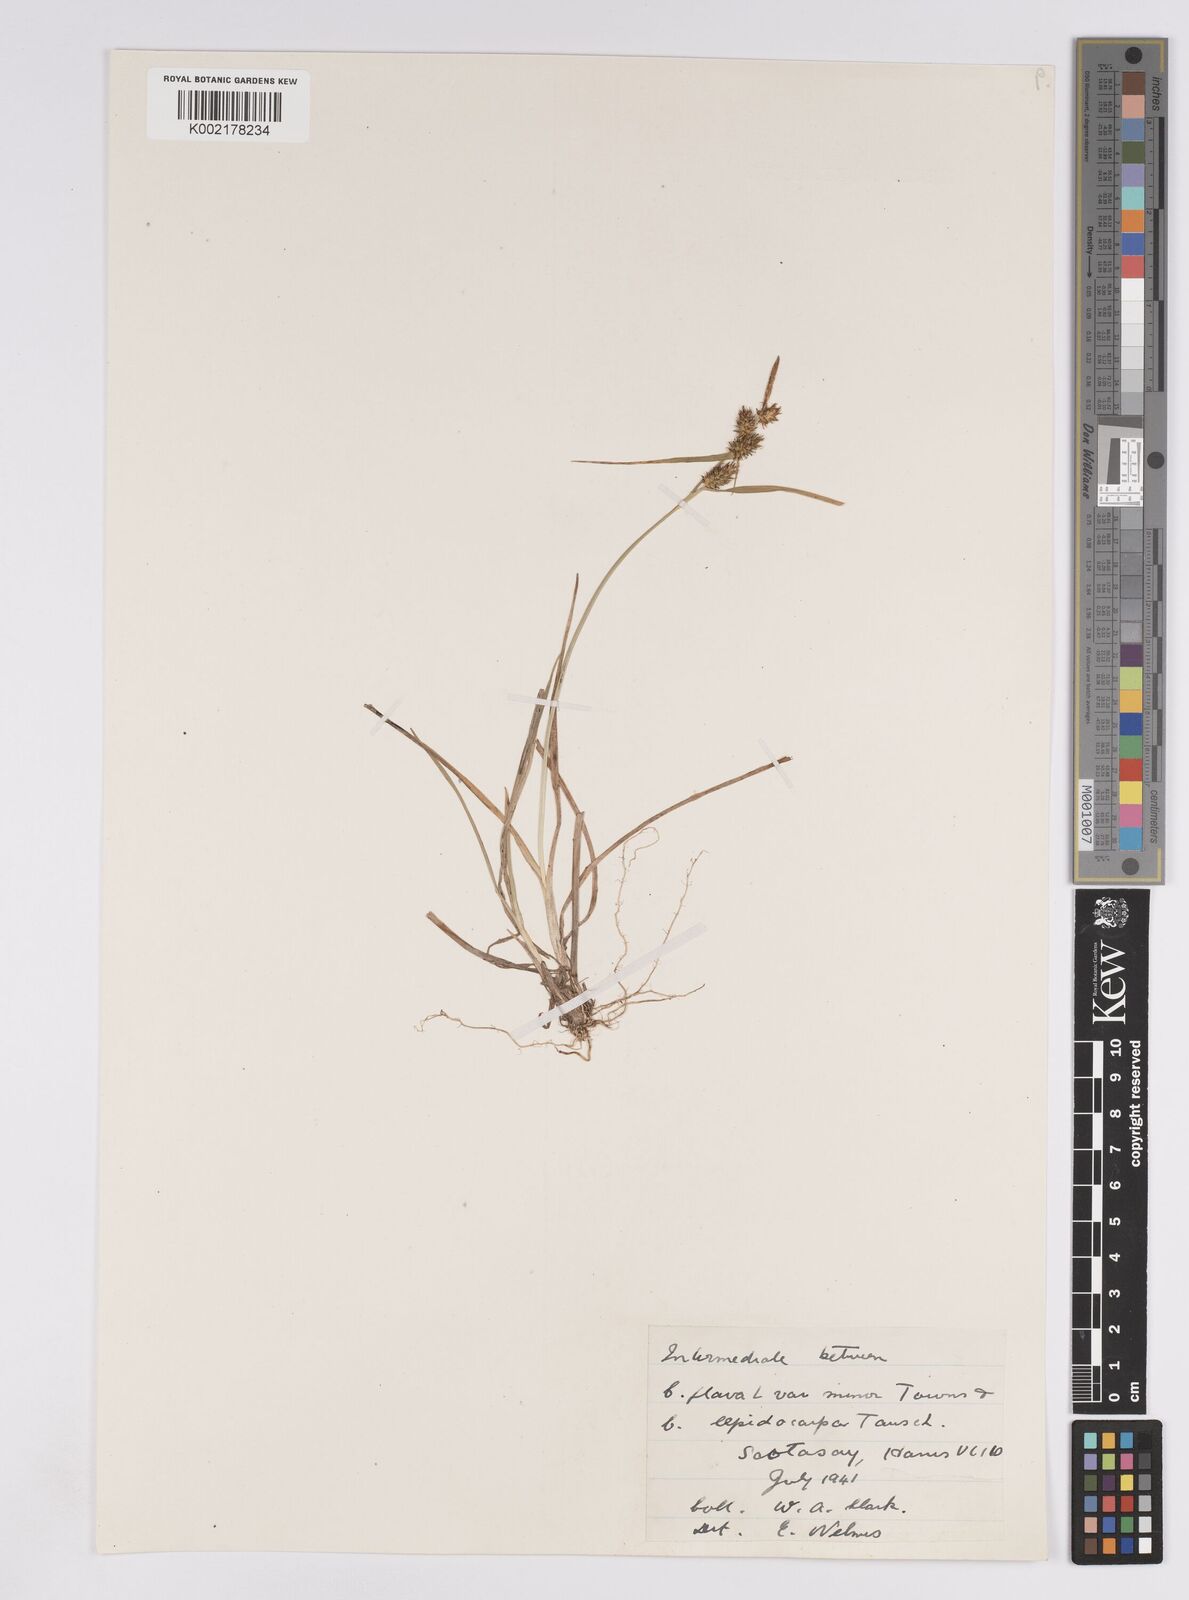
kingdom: Plantae
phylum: Tracheophyta
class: Liliopsida
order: Poales
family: Cyperaceae
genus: Carex
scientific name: Carex demissa
